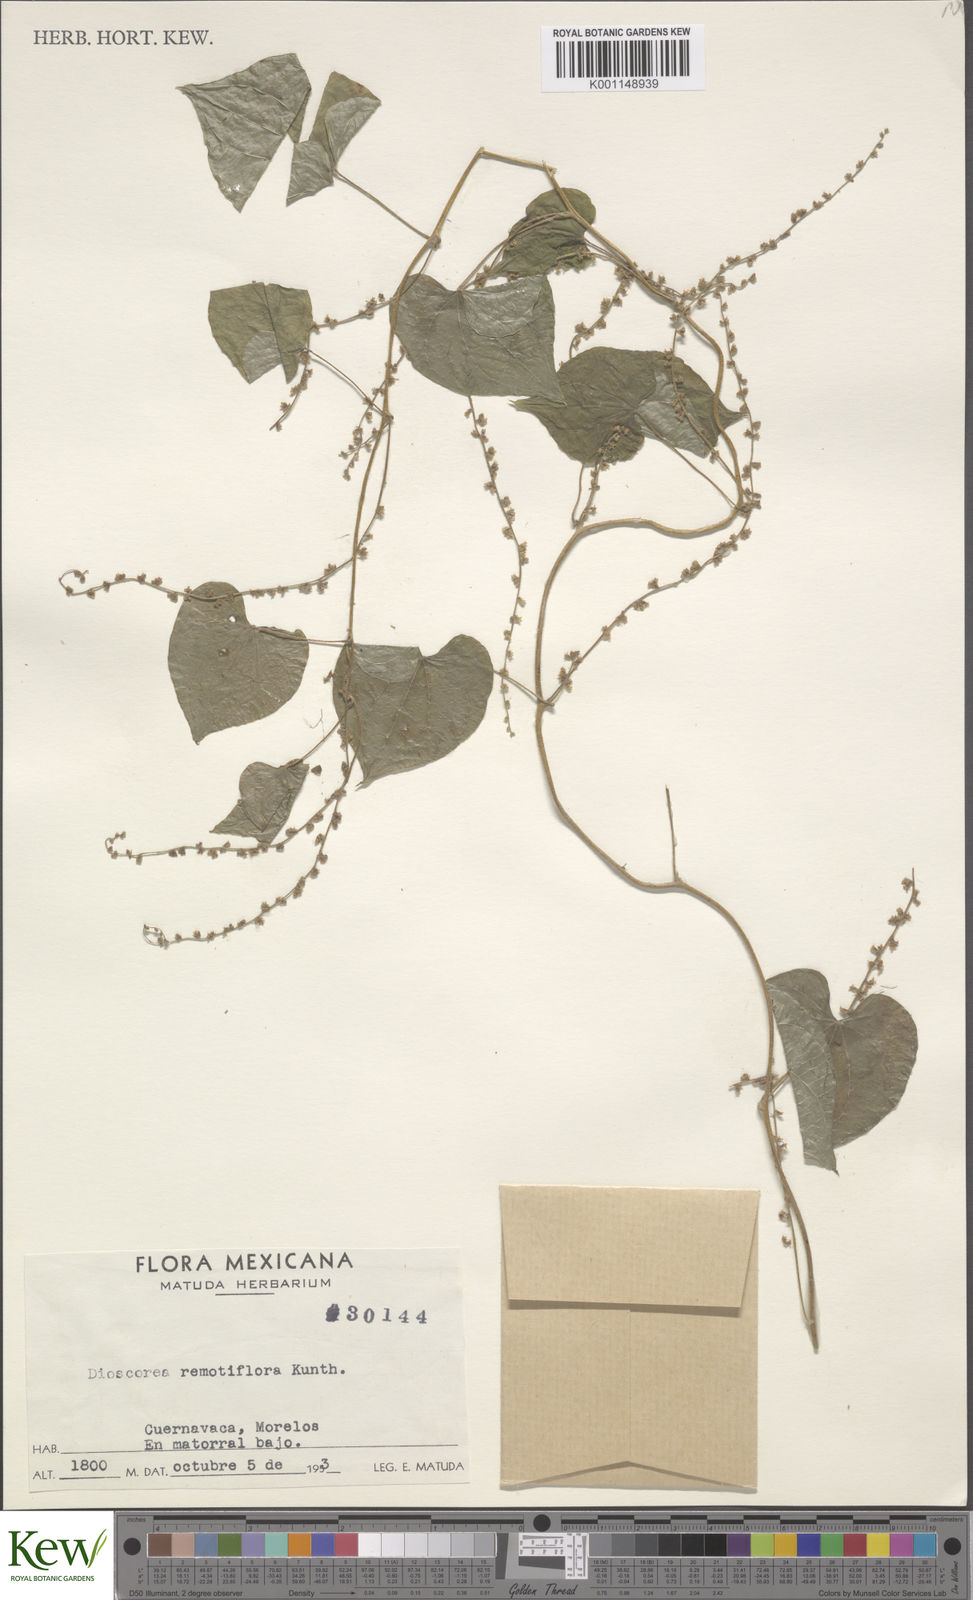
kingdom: Plantae
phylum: Tracheophyta
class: Liliopsida
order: Dioscoreales
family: Dioscoreaceae
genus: Dioscorea
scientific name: Dioscorea remotiflora
